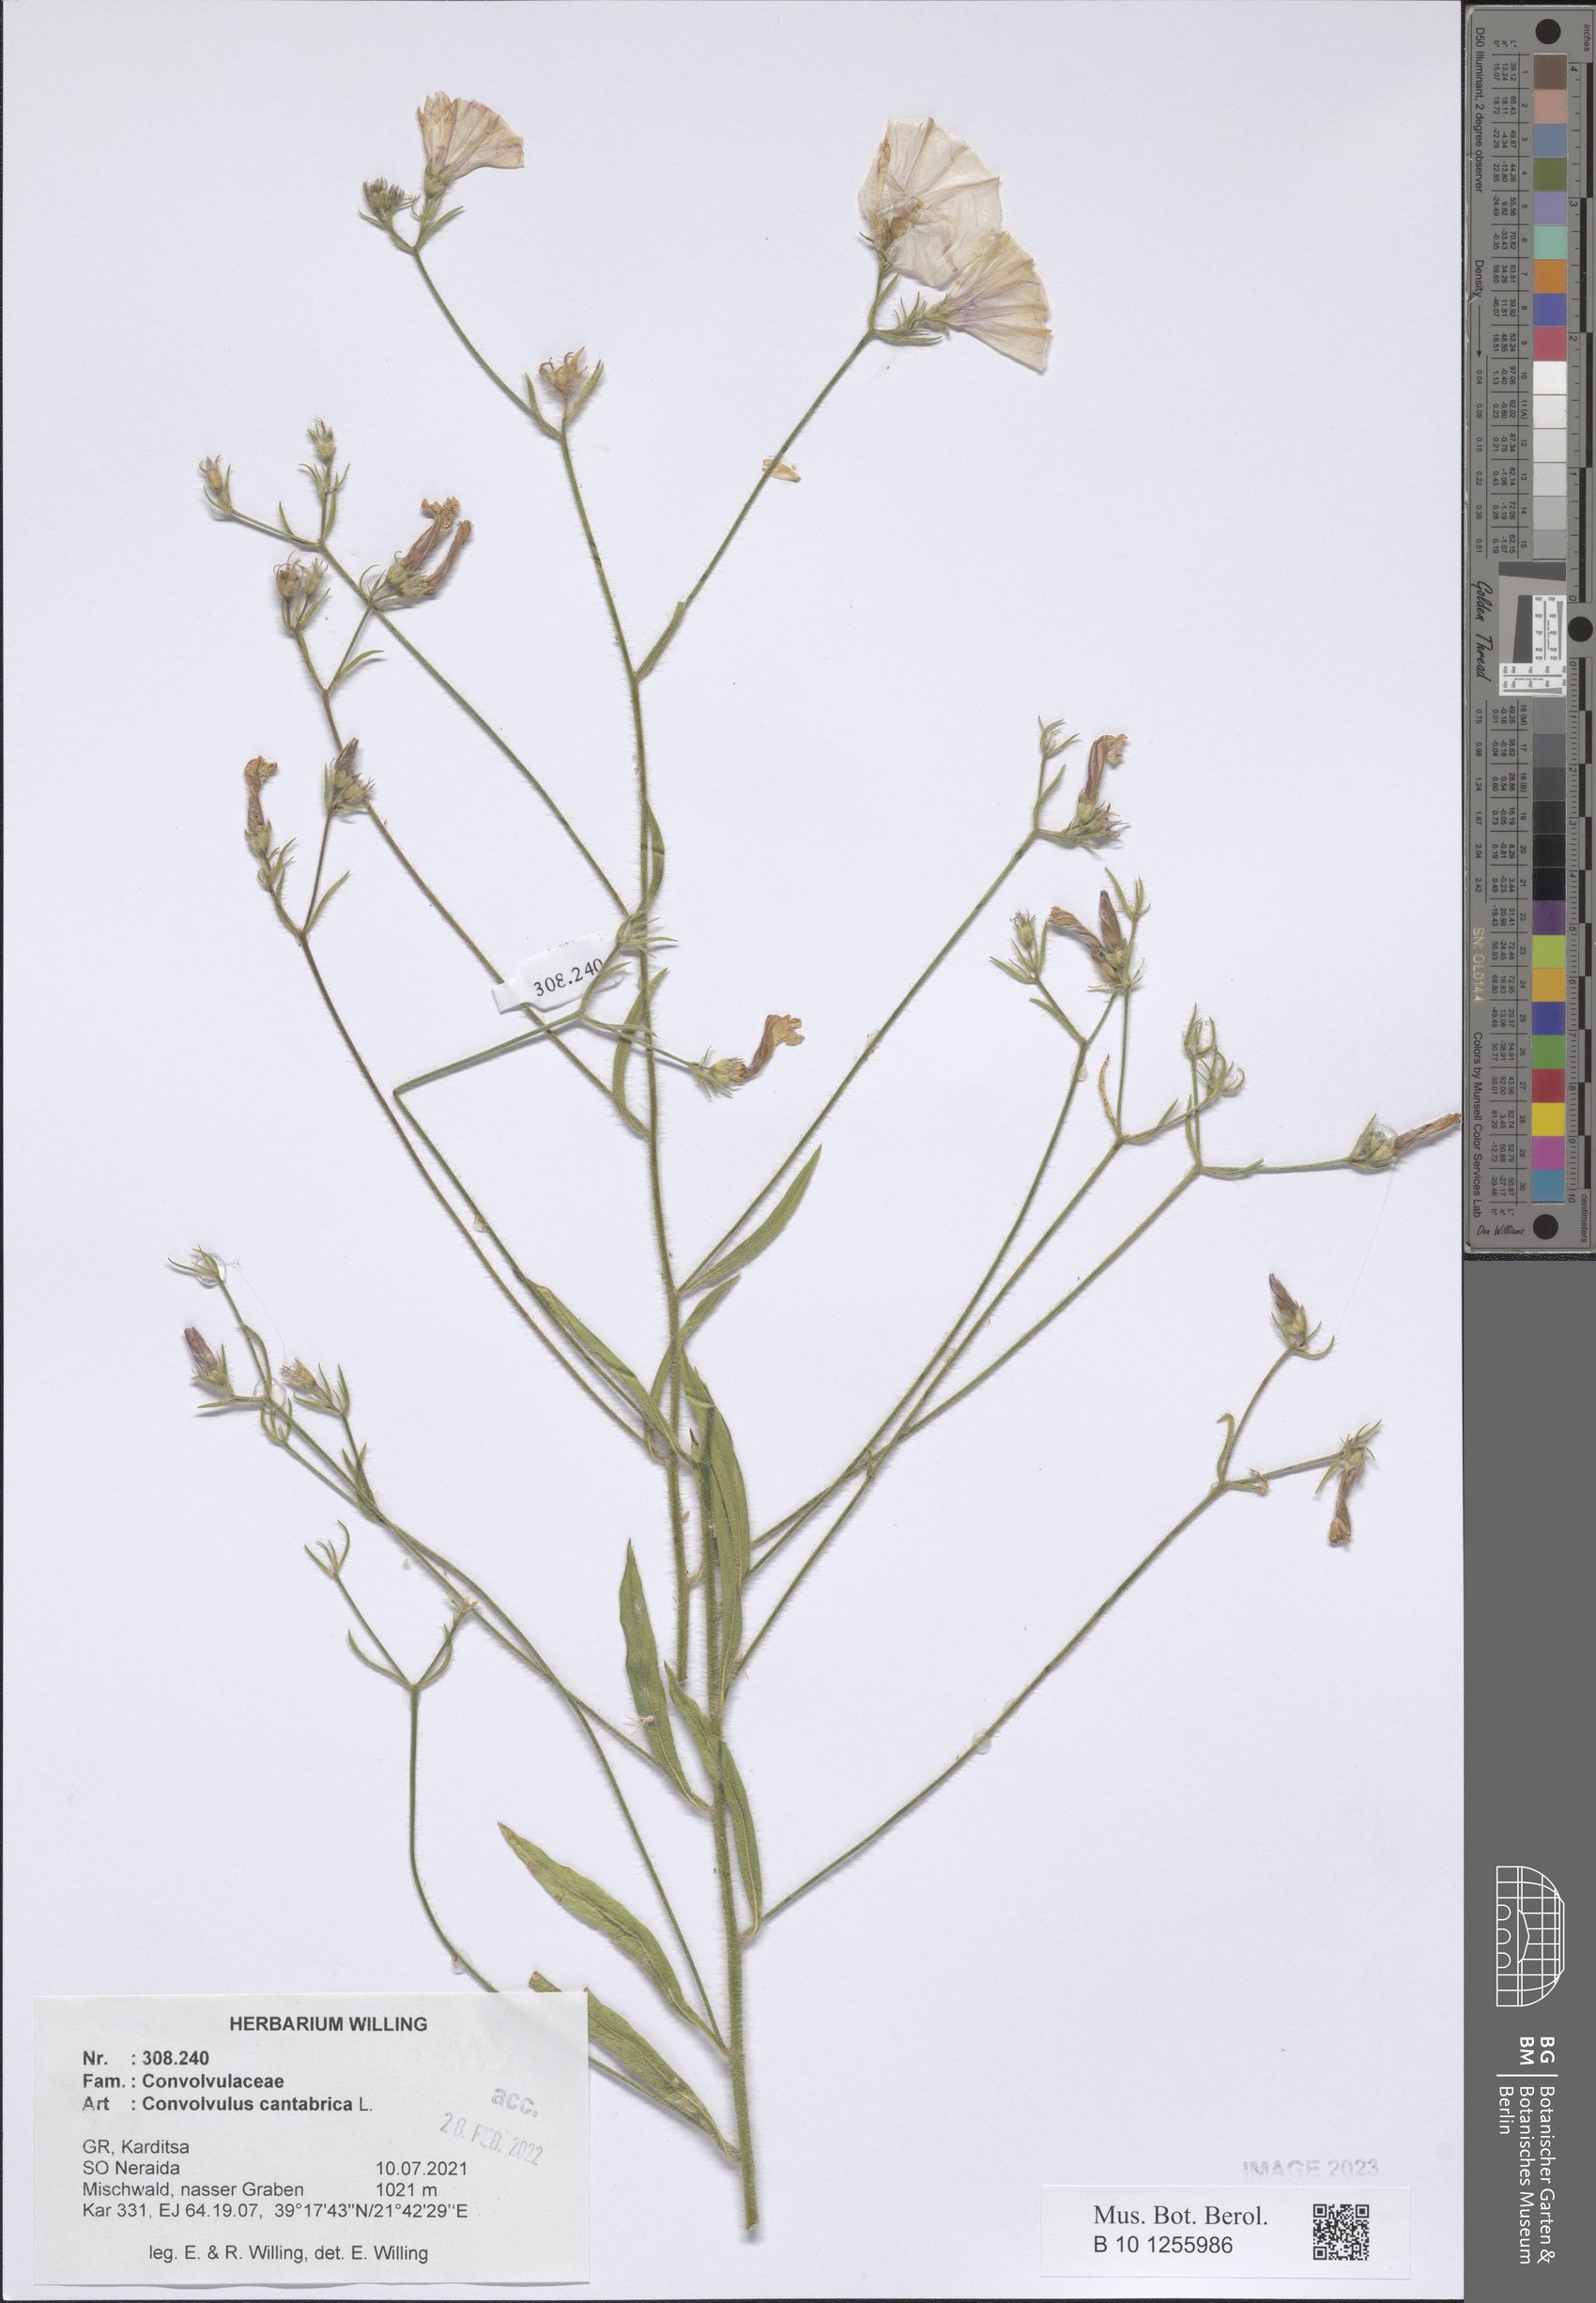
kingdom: Plantae
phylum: Tracheophyta
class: Magnoliopsida
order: Solanales
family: Convolvulaceae
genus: Convolvulus
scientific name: Convolvulus cantabrica
